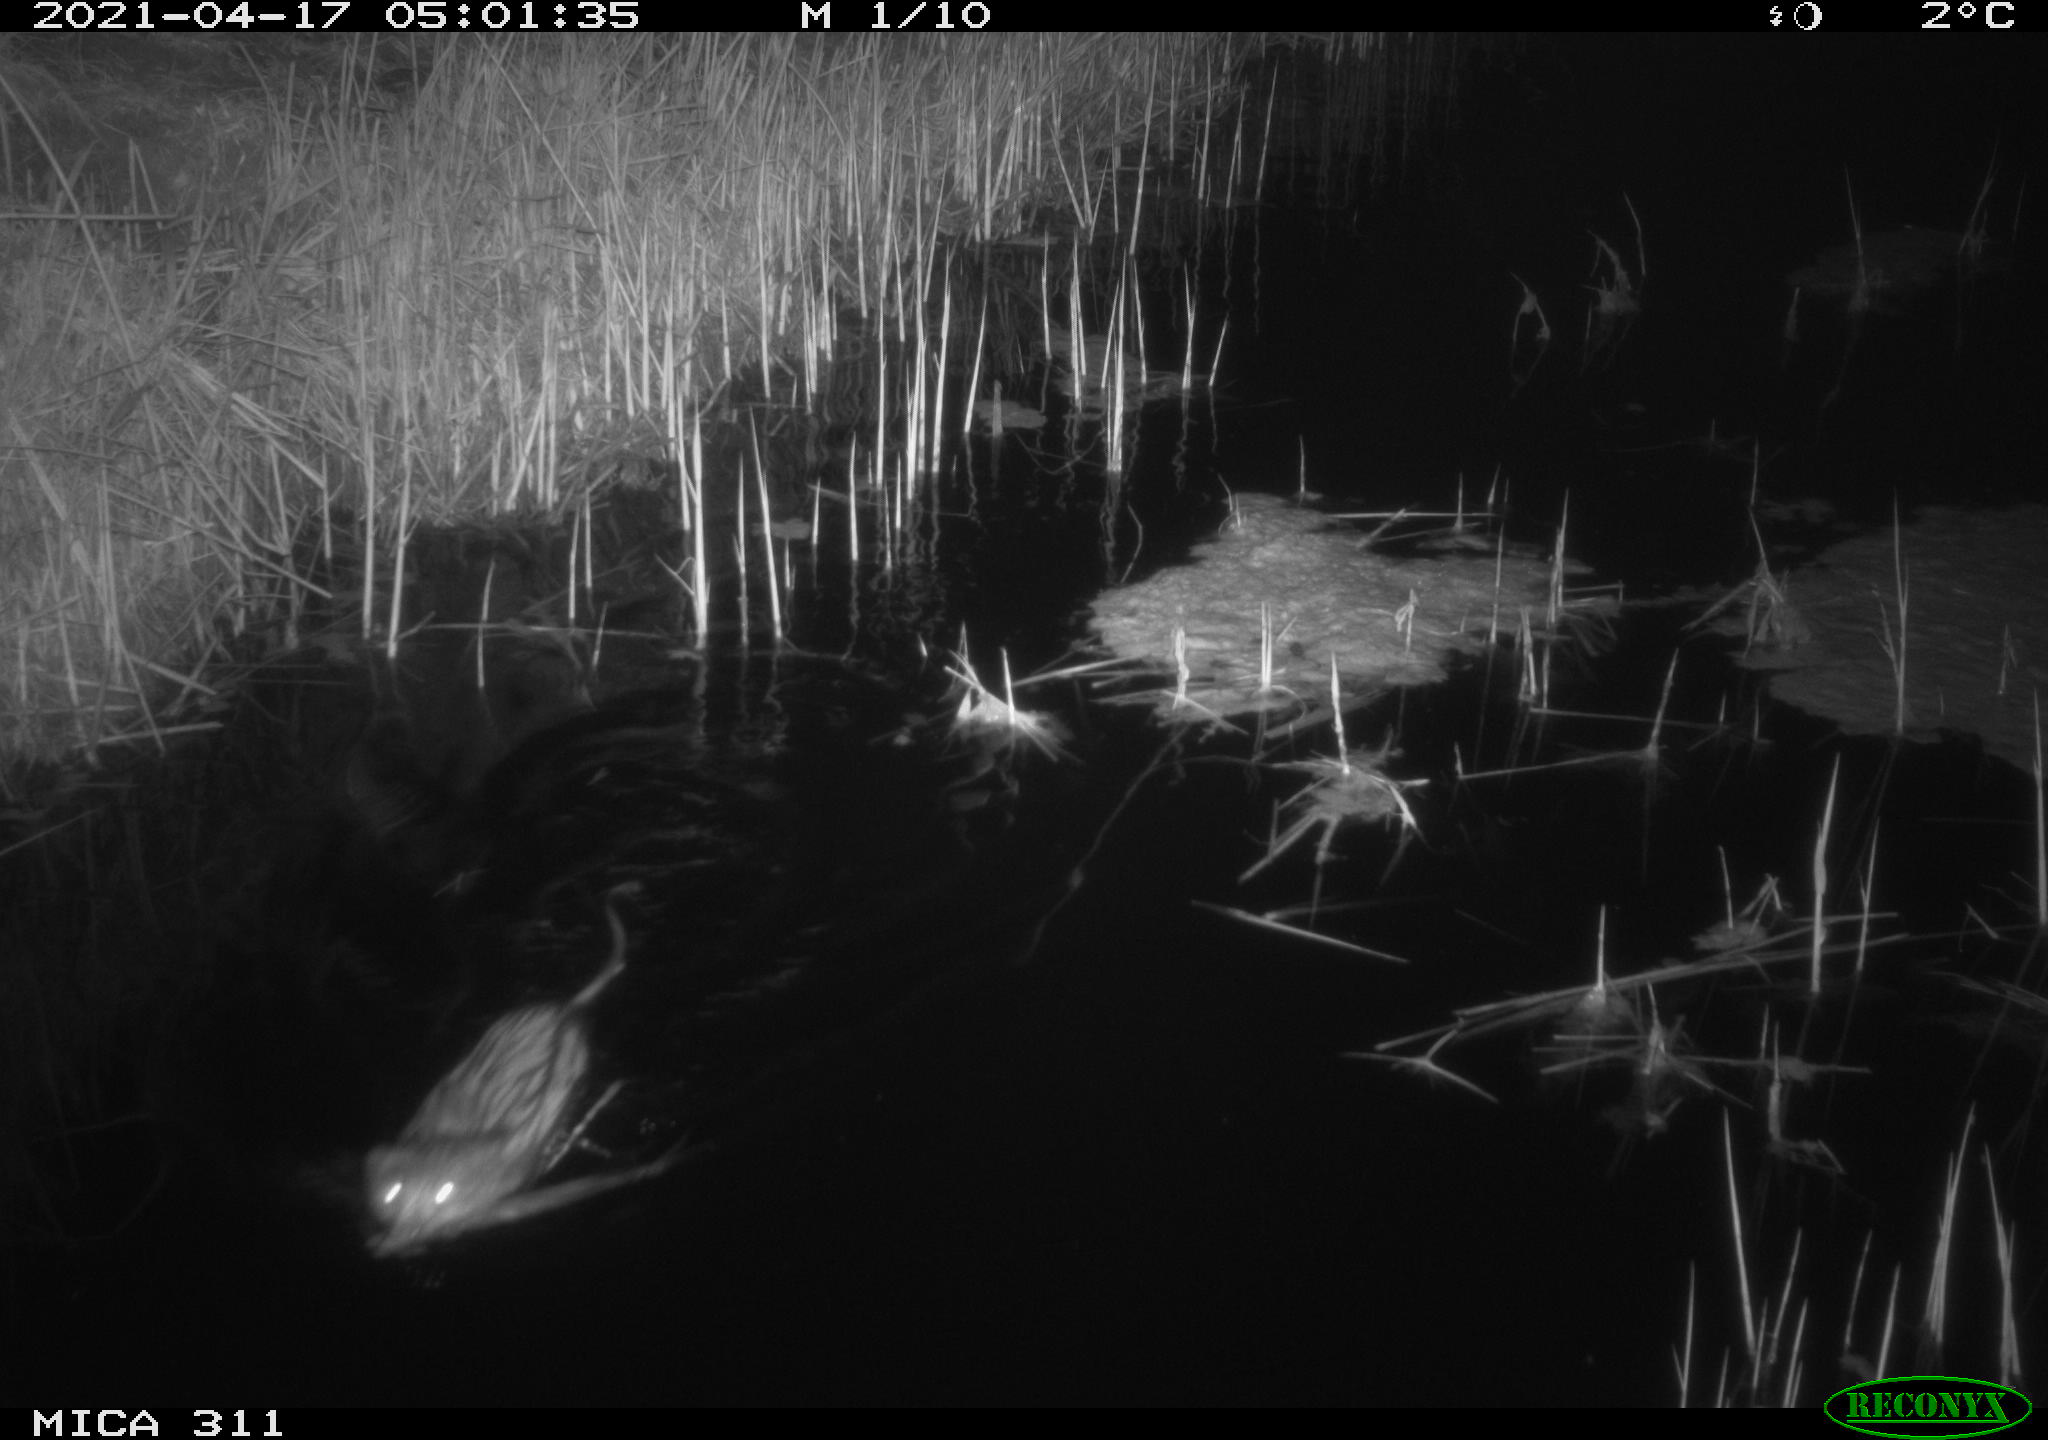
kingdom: Animalia
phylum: Chordata
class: Mammalia
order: Rodentia
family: Cricetidae
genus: Ondatra
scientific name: Ondatra zibethicus
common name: Muskrat
